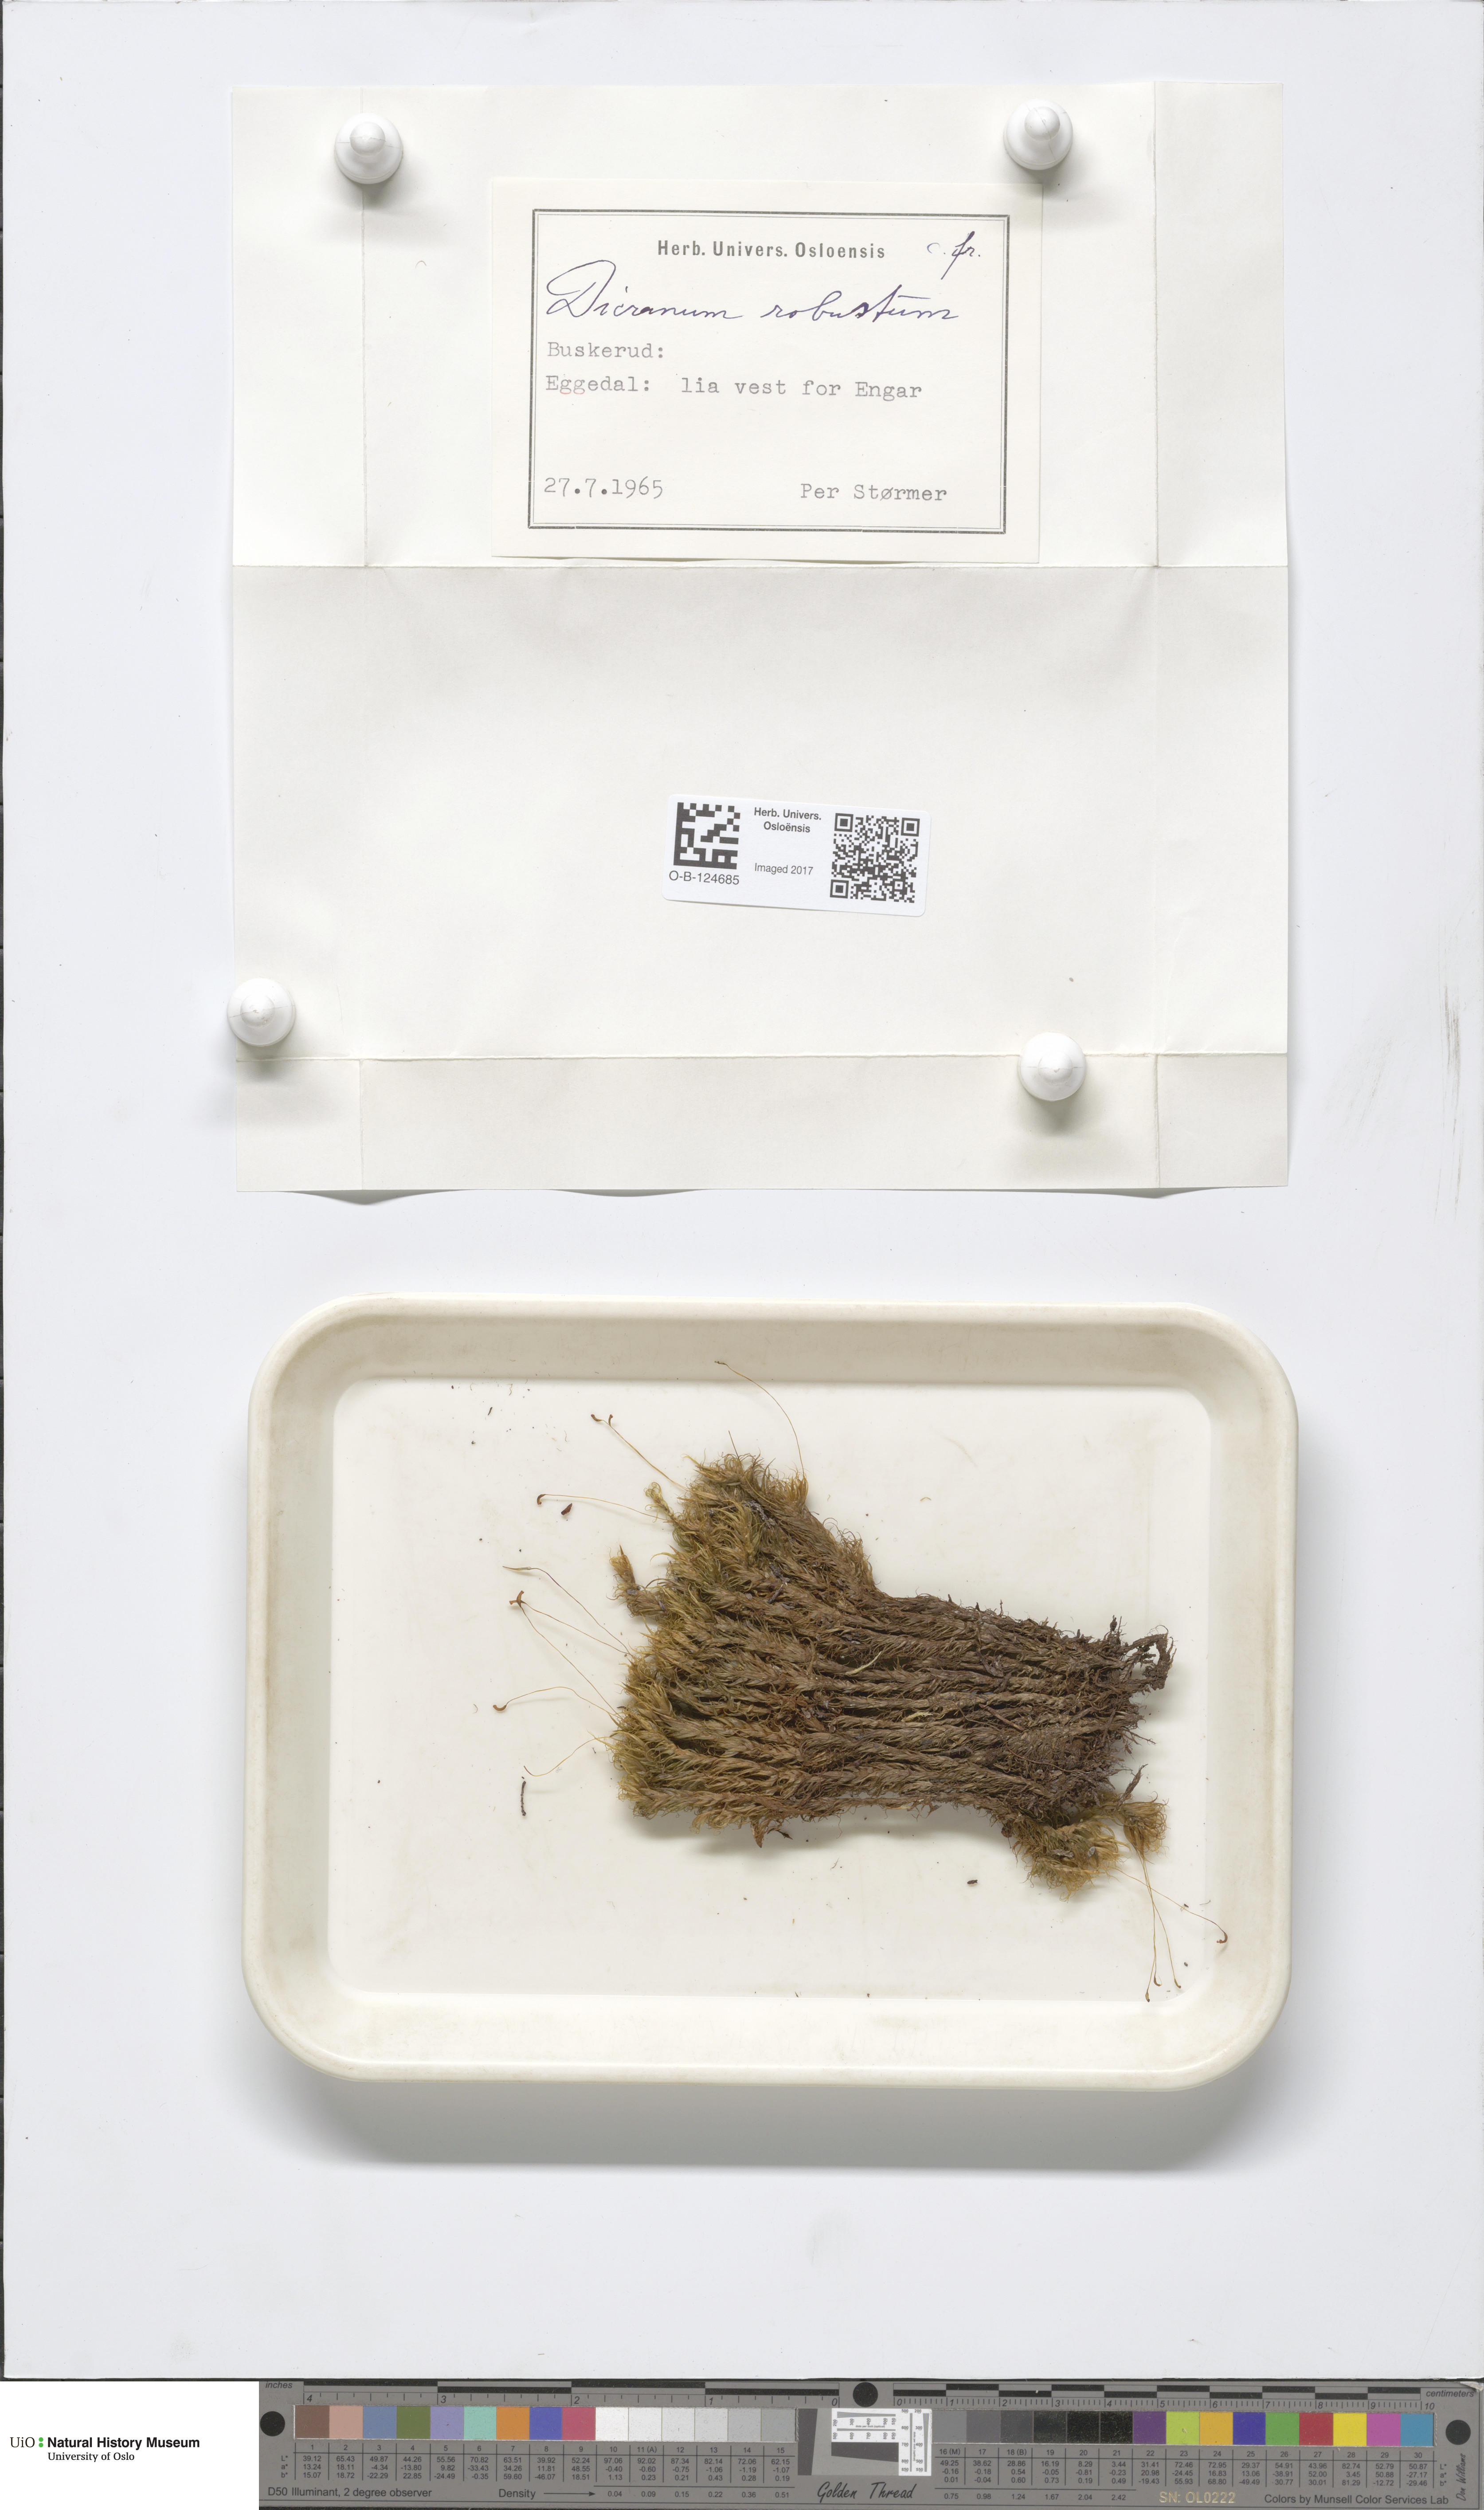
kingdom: Plantae
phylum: Bryophyta
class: Bryopsida
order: Dicranales
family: Dicranaceae
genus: Dicranum
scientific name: Dicranum drummondii
